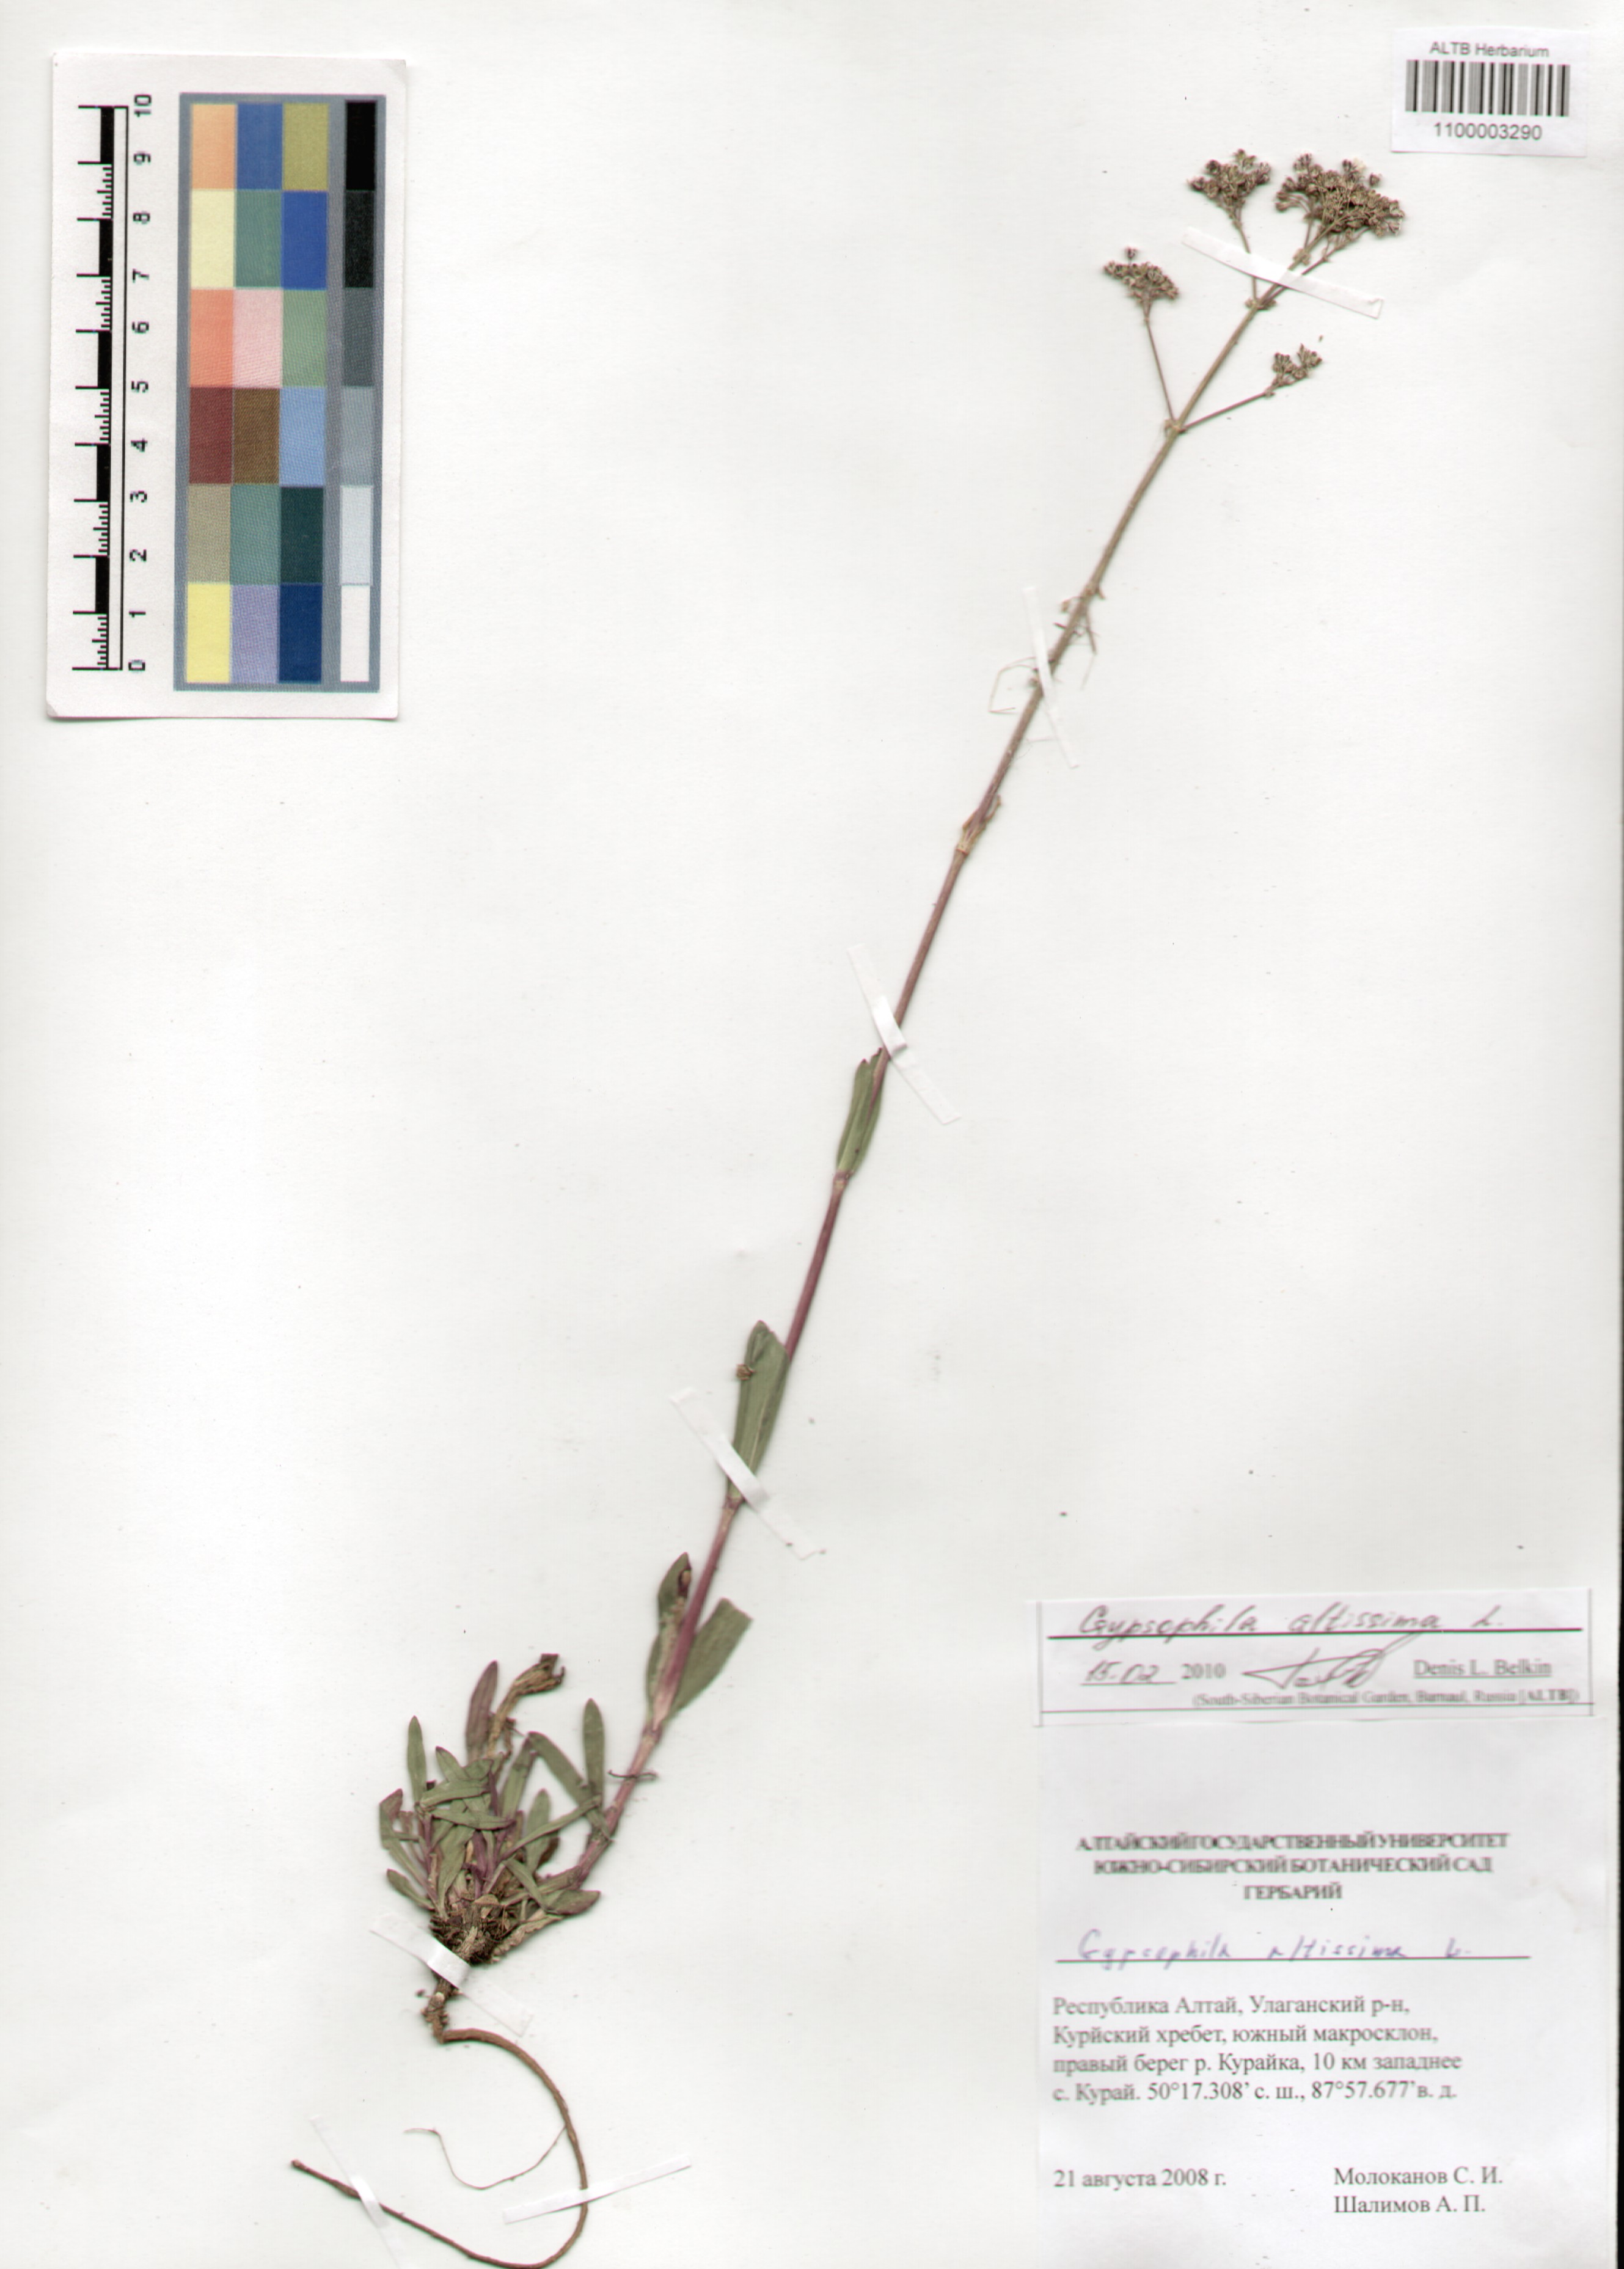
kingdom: Plantae
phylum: Tracheophyta
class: Magnoliopsida
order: Caryophyllales
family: Caryophyllaceae
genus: Gypsophila
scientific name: Gypsophila altissima
